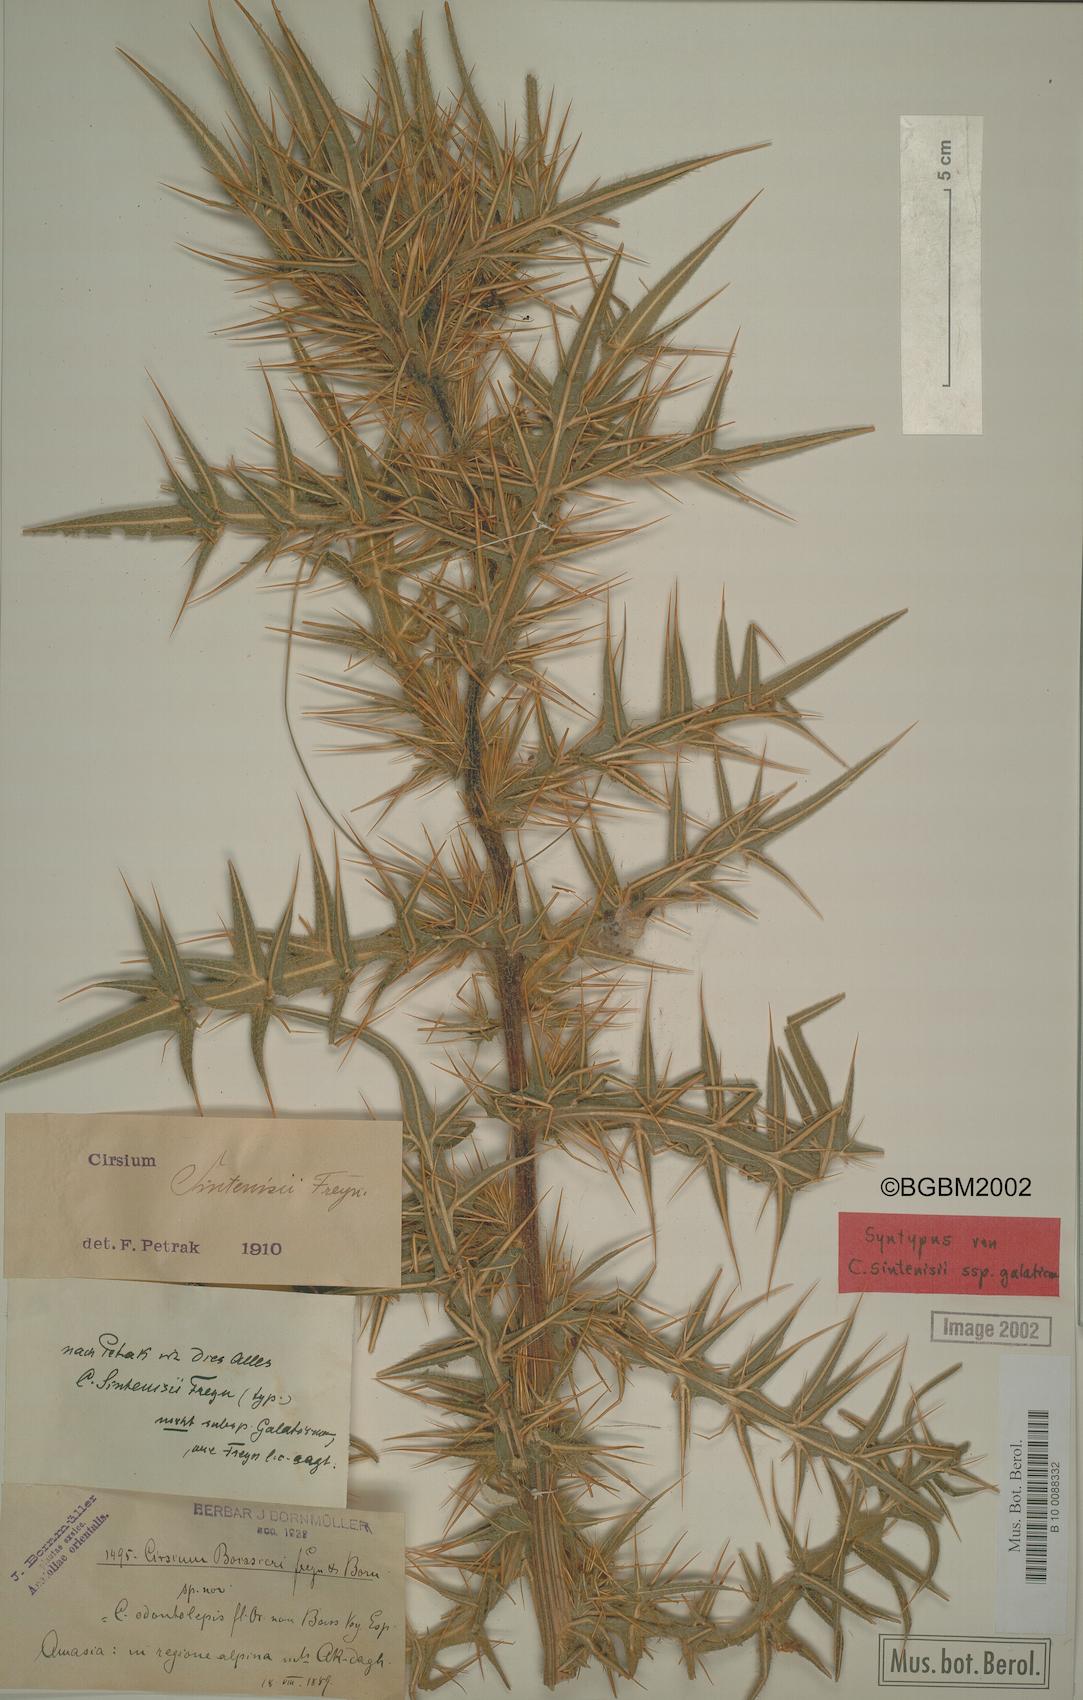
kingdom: Plantae
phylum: Tracheophyta
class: Magnoliopsida
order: Asterales
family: Asteraceae
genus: Lophiolepis
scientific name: Lophiolepis sintenisii
